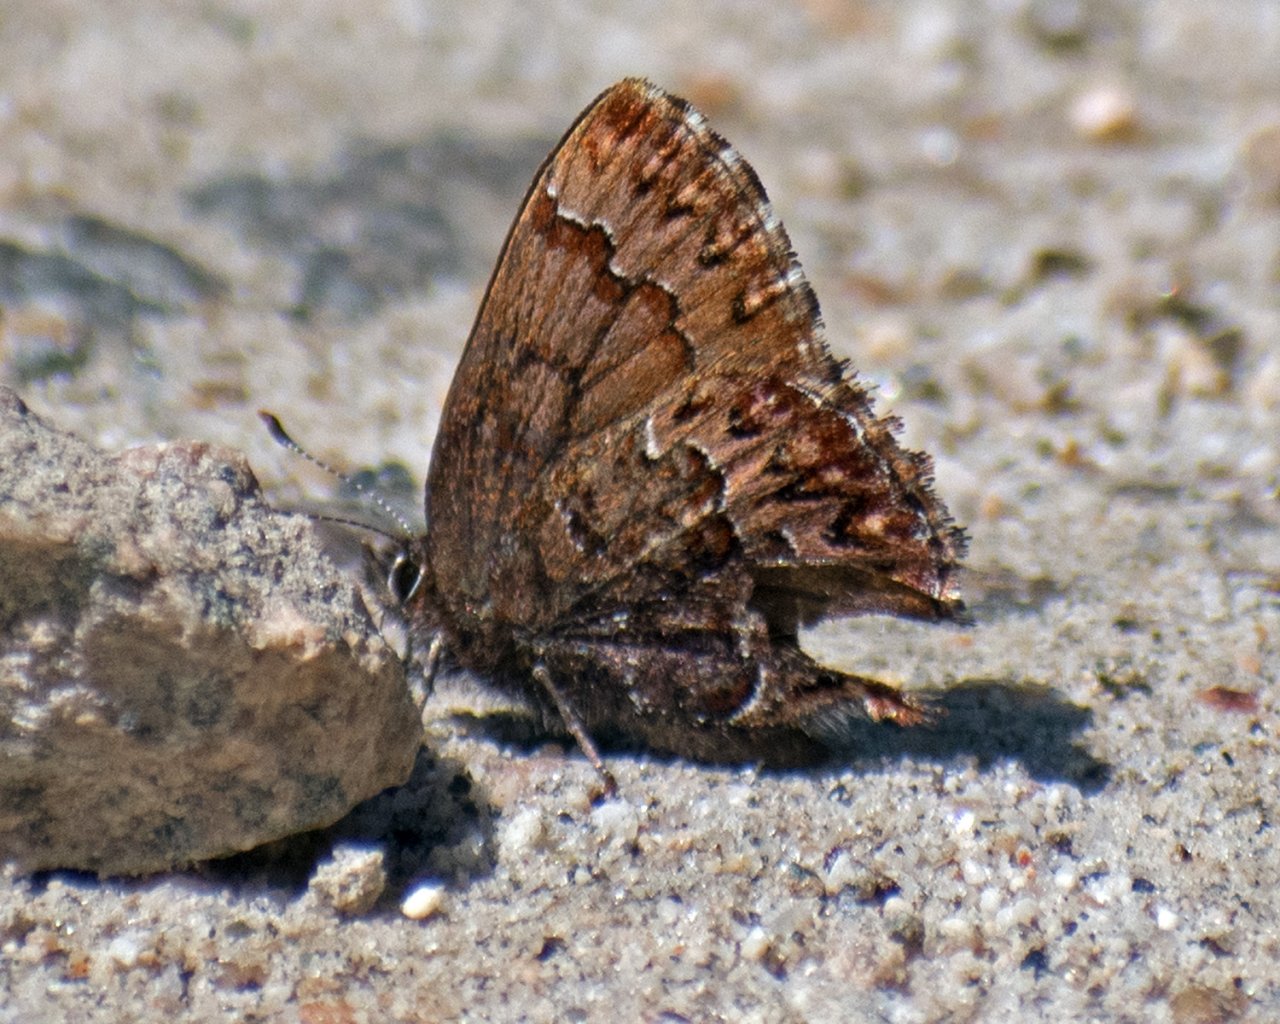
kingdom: Animalia
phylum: Arthropoda
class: Insecta
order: Lepidoptera
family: Lycaenidae
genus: Incisalia
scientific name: Incisalia eryphon
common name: Western Pine Elfin
